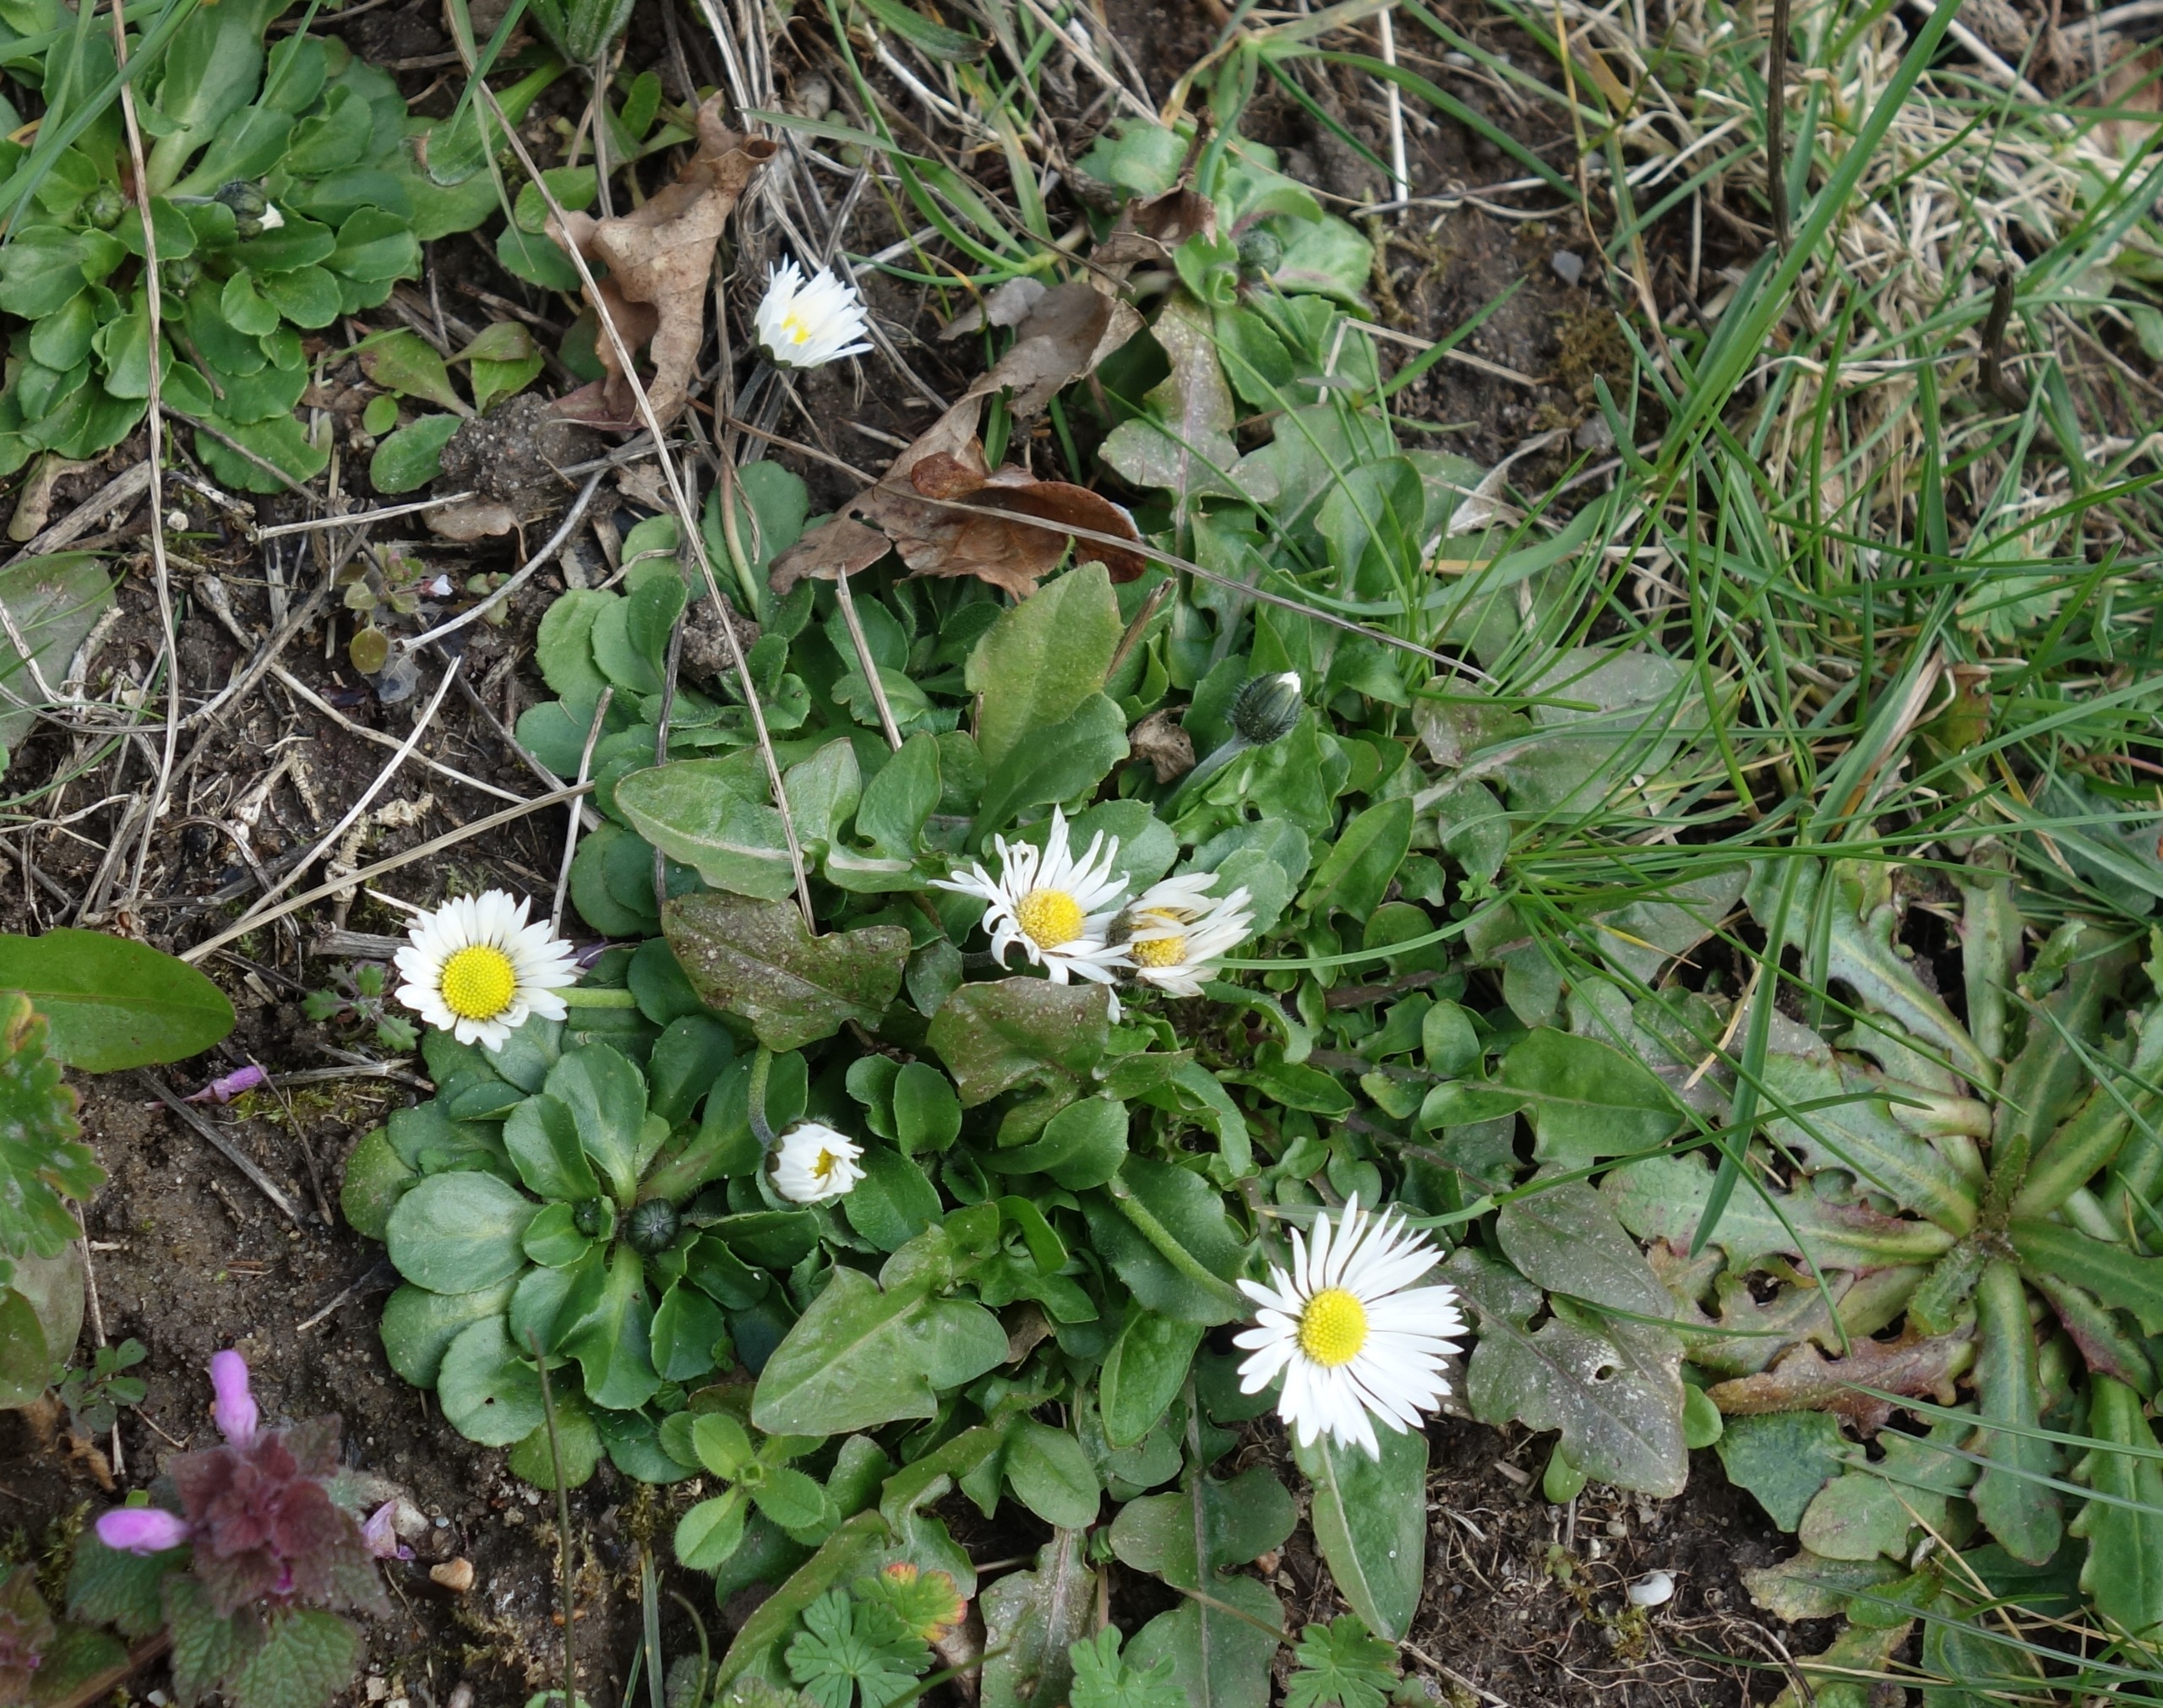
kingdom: Plantae
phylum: Tracheophyta
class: Magnoliopsida
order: Asterales
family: Asteraceae
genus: Bellis
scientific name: Bellis perennis
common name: Tusindfryd
